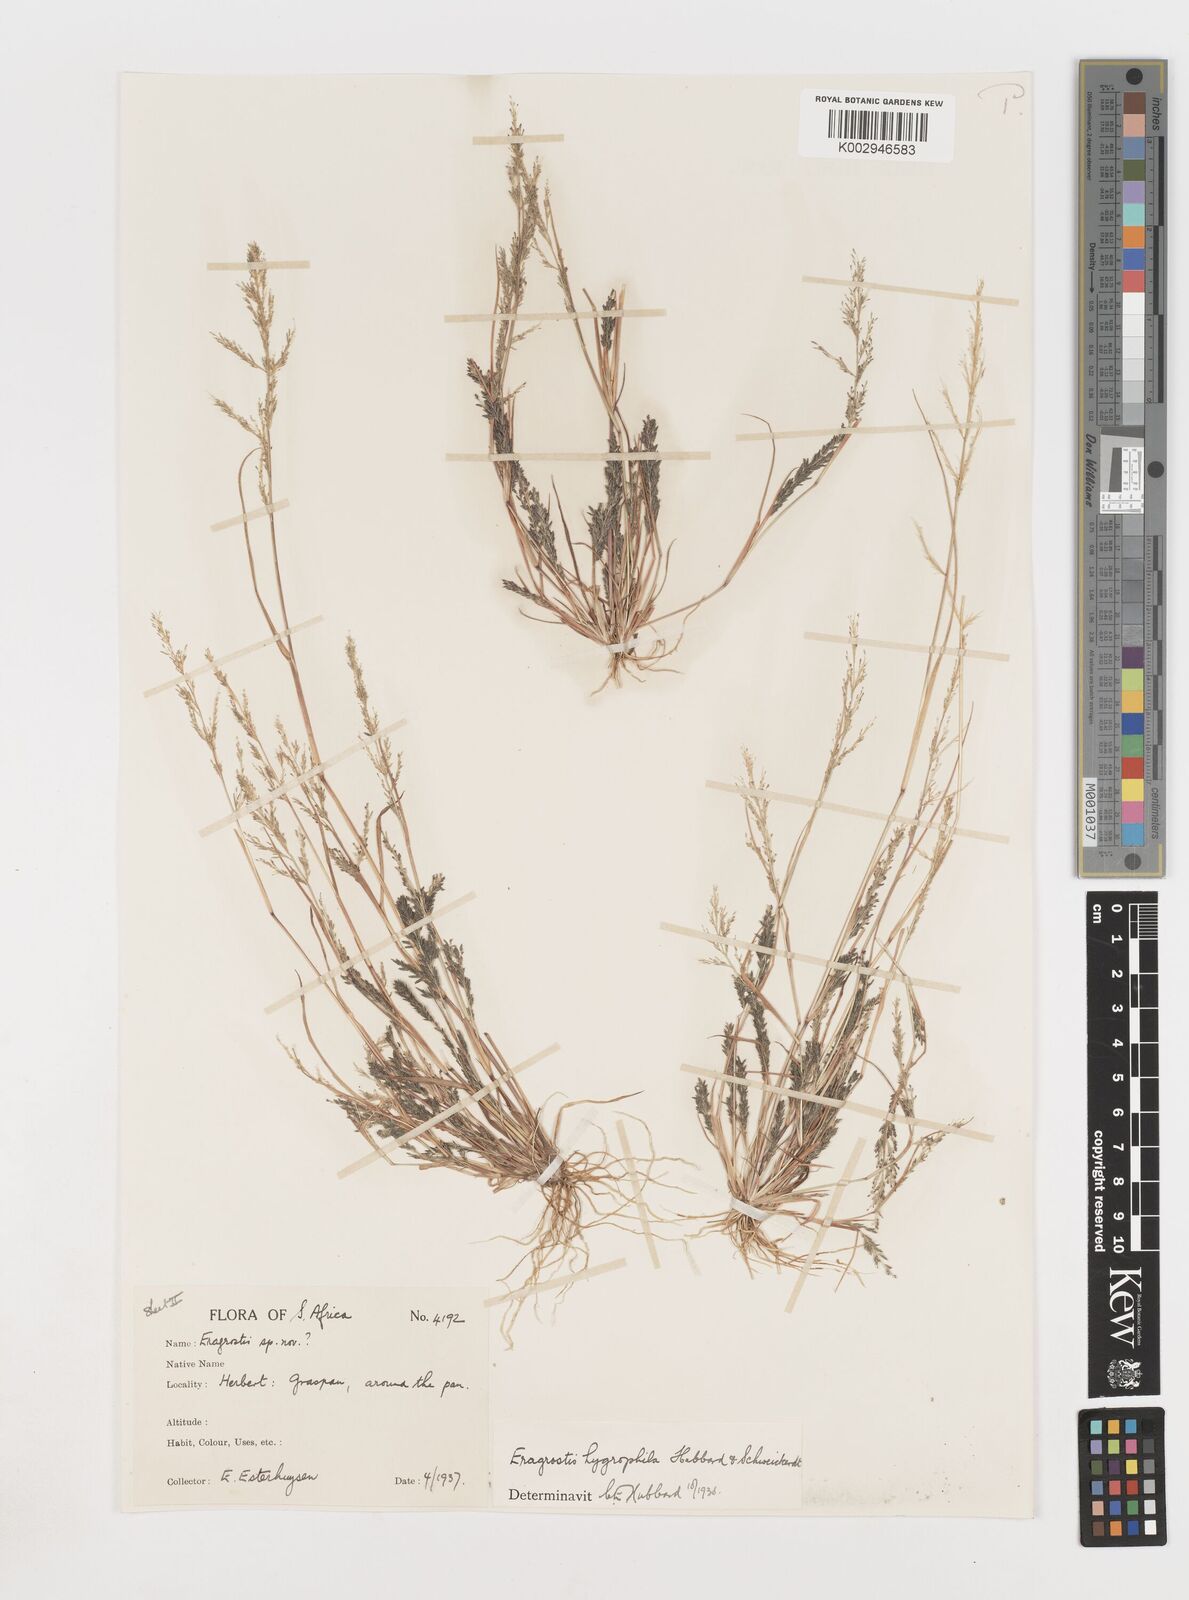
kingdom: Plantae
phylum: Tracheophyta
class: Liliopsida
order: Poales
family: Poaceae
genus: Eragrostis
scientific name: Eragrostis homomalla
